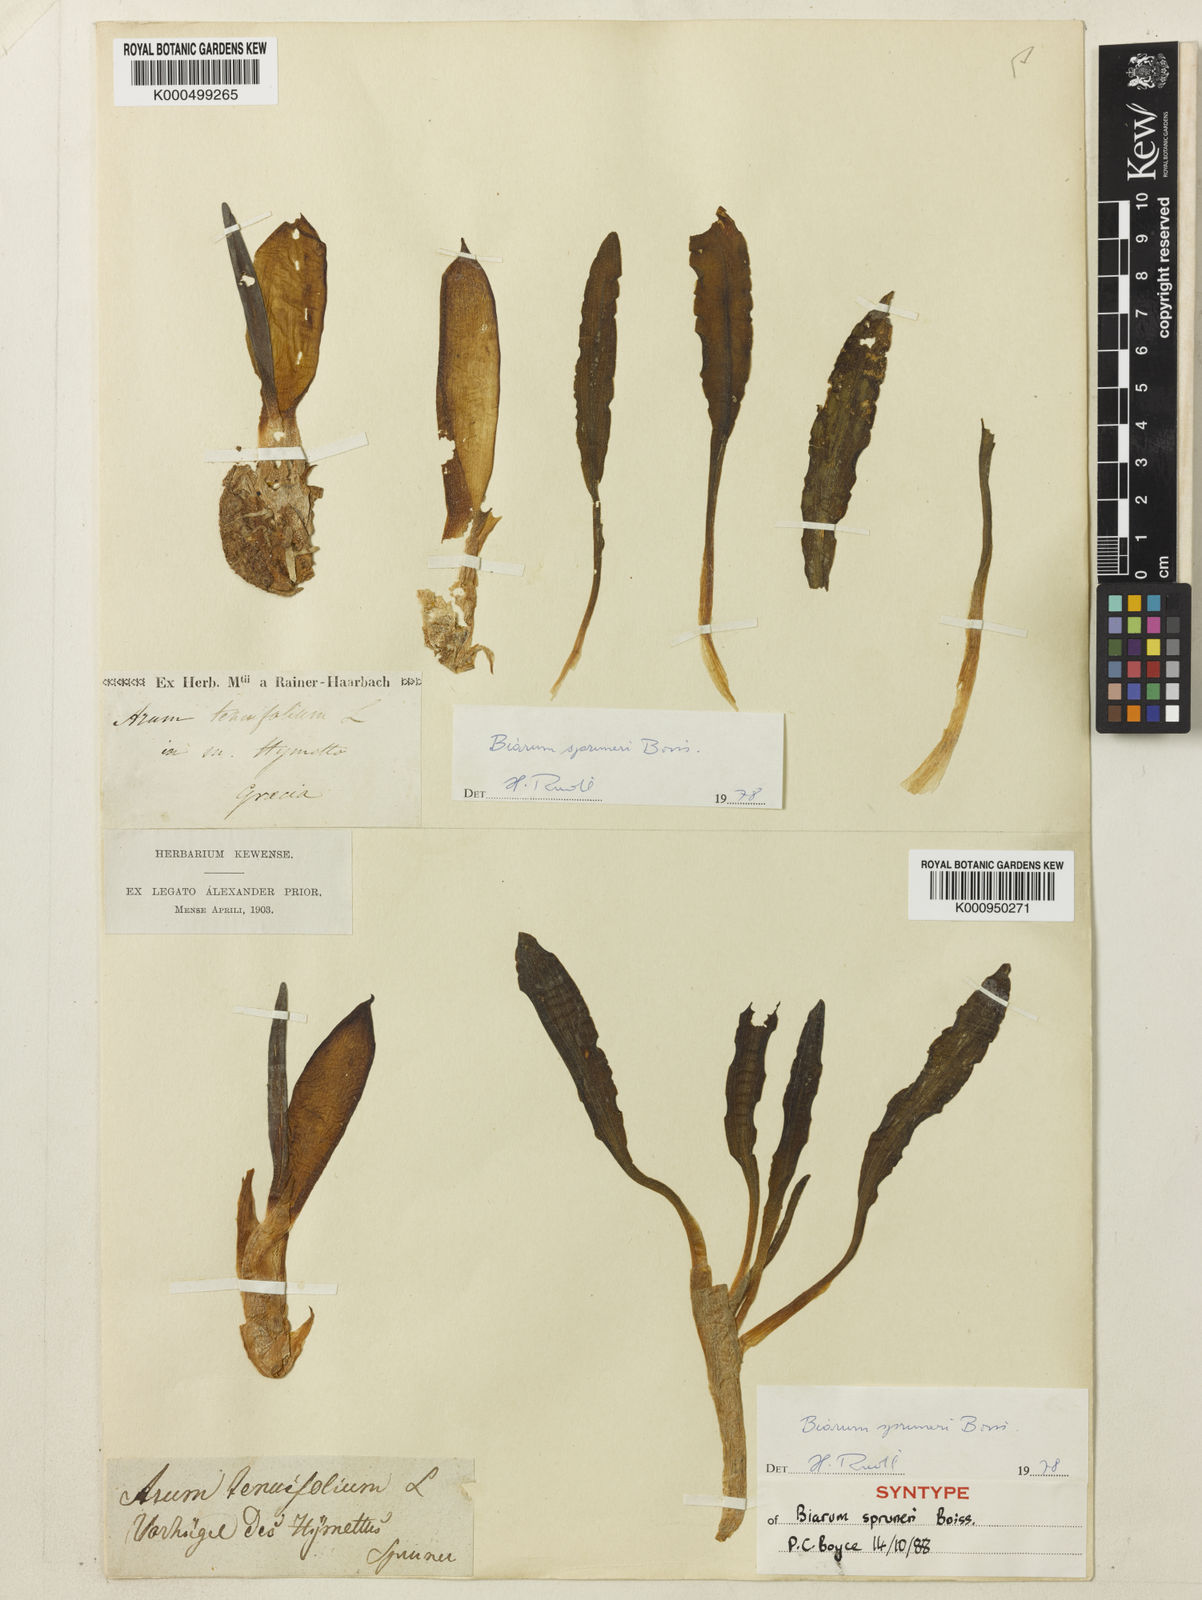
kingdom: Plantae
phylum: Tracheophyta
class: Liliopsida
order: Alismatales
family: Araceae
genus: Biarum
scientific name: Biarum rhopalospadix
